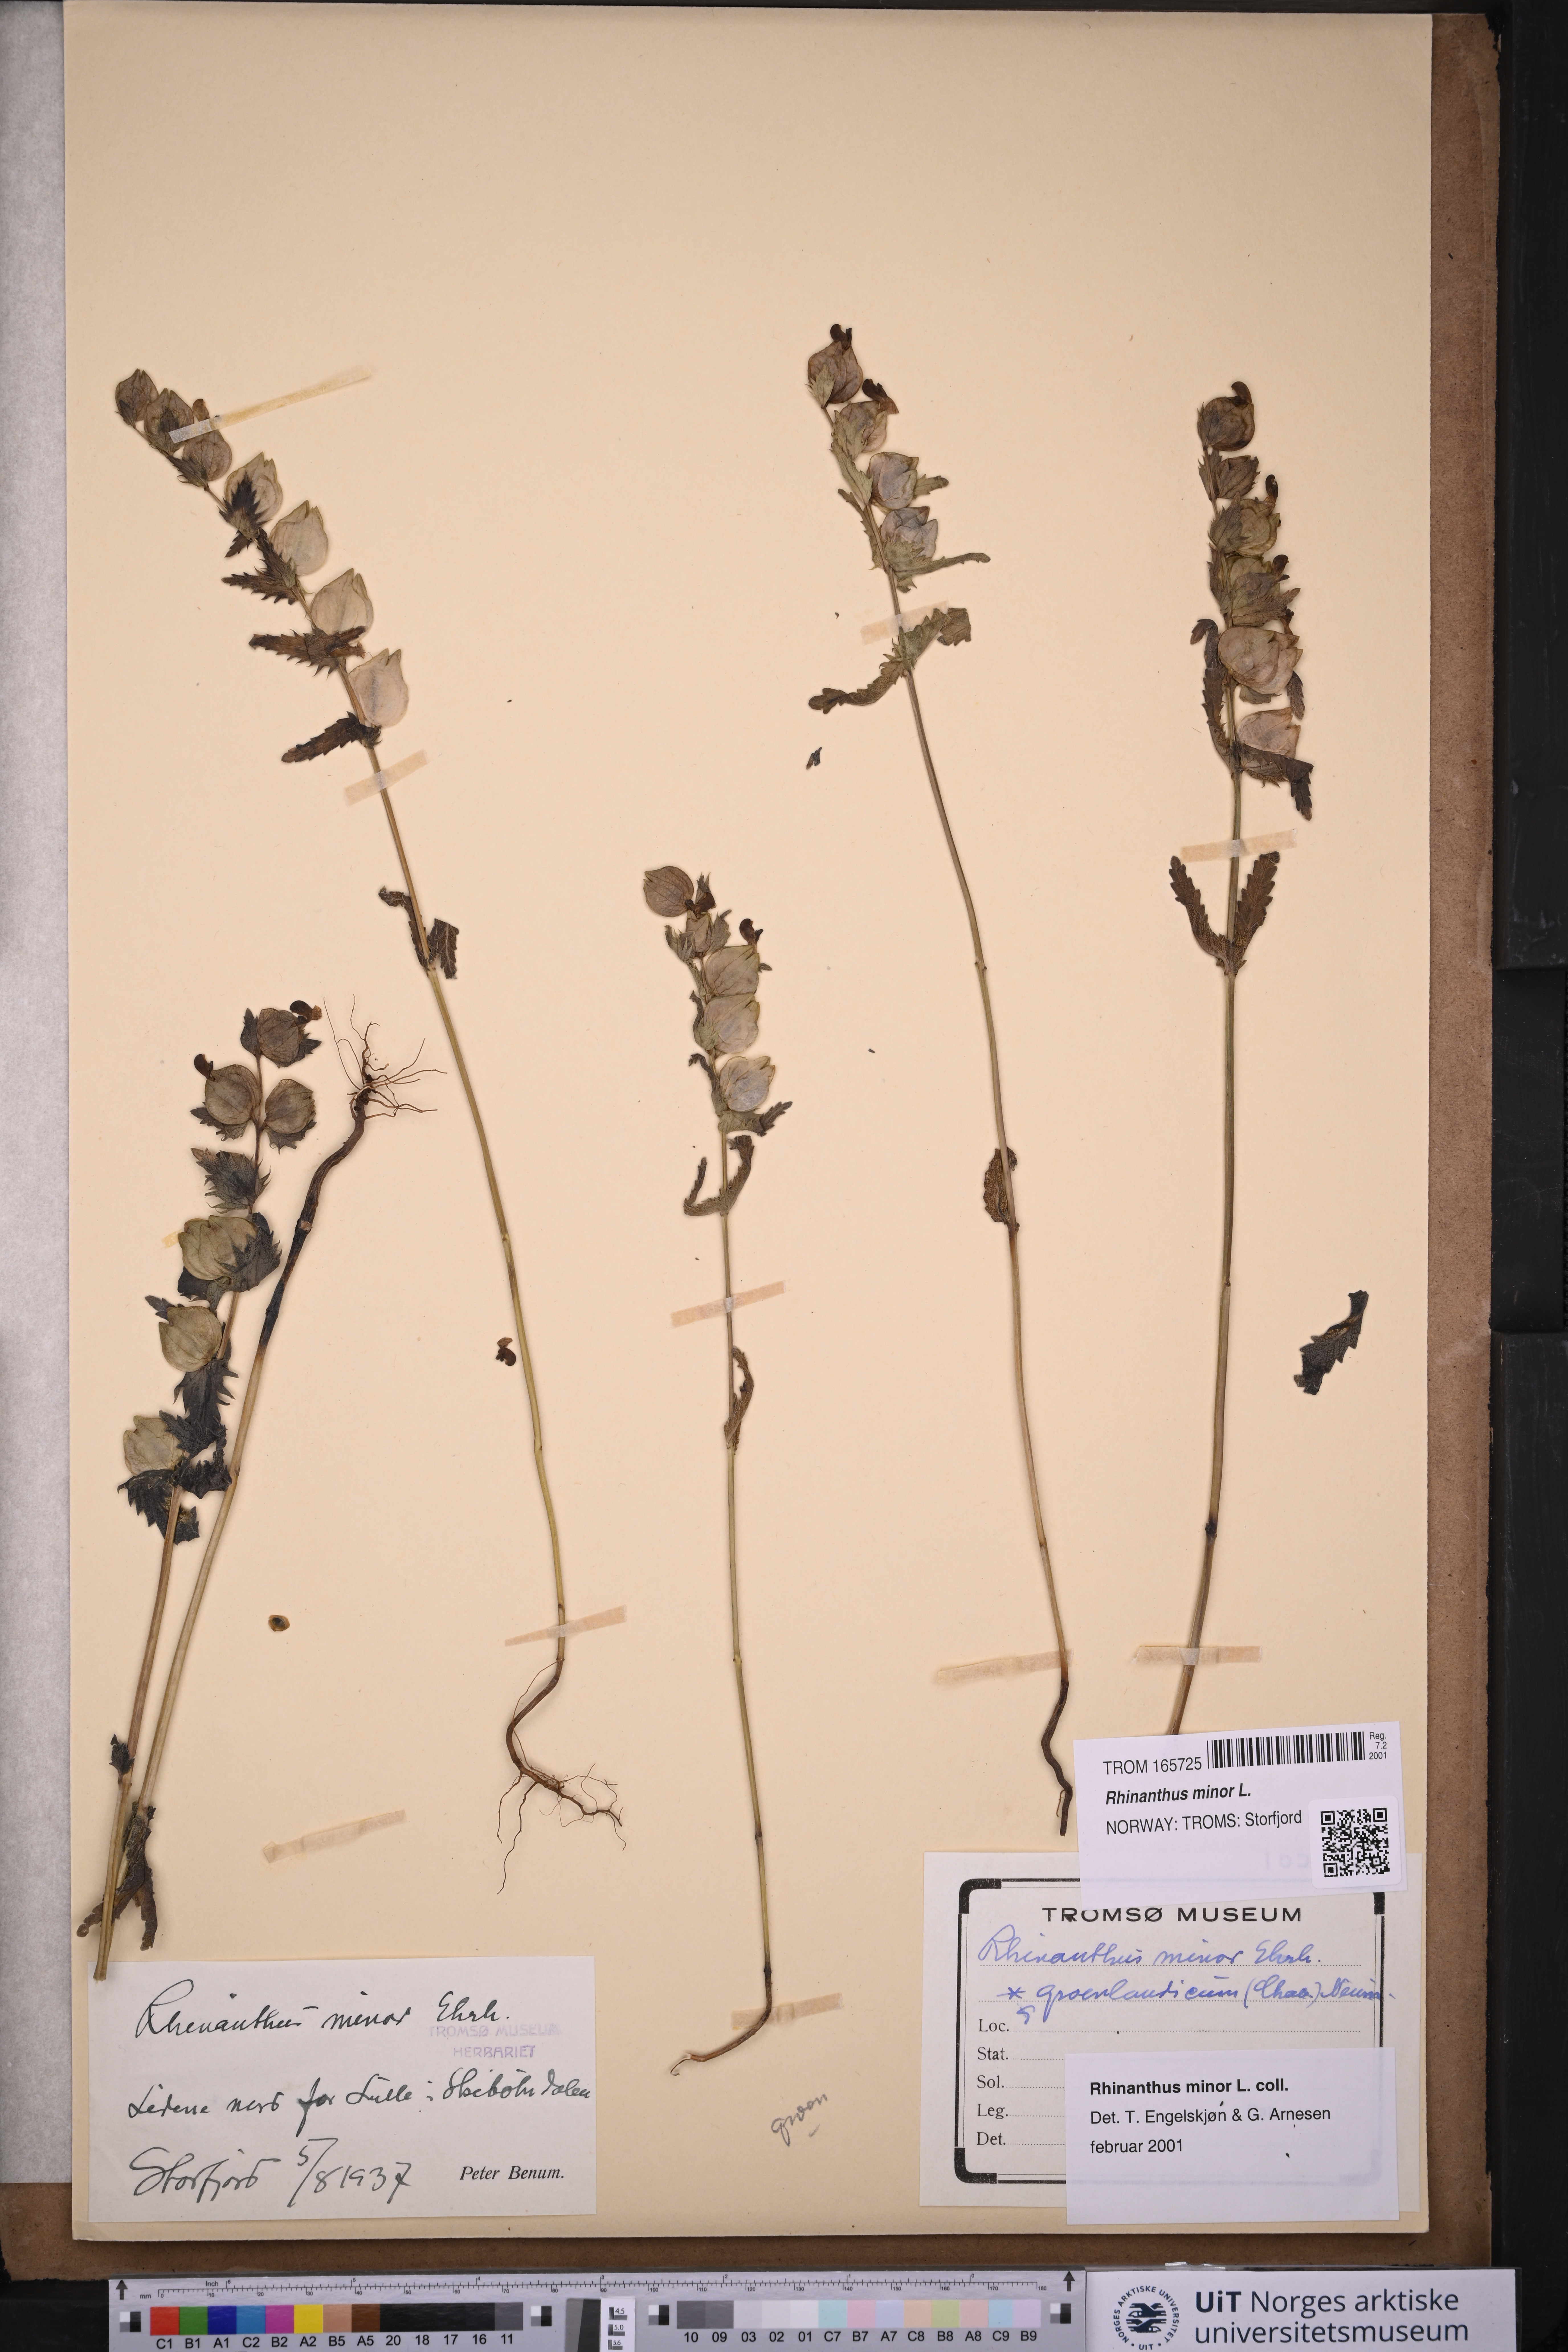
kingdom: Plantae
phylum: Tracheophyta
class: Magnoliopsida
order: Lamiales
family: Orobanchaceae
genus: Rhinanthus
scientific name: Rhinanthus minor
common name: Yellow-rattle
